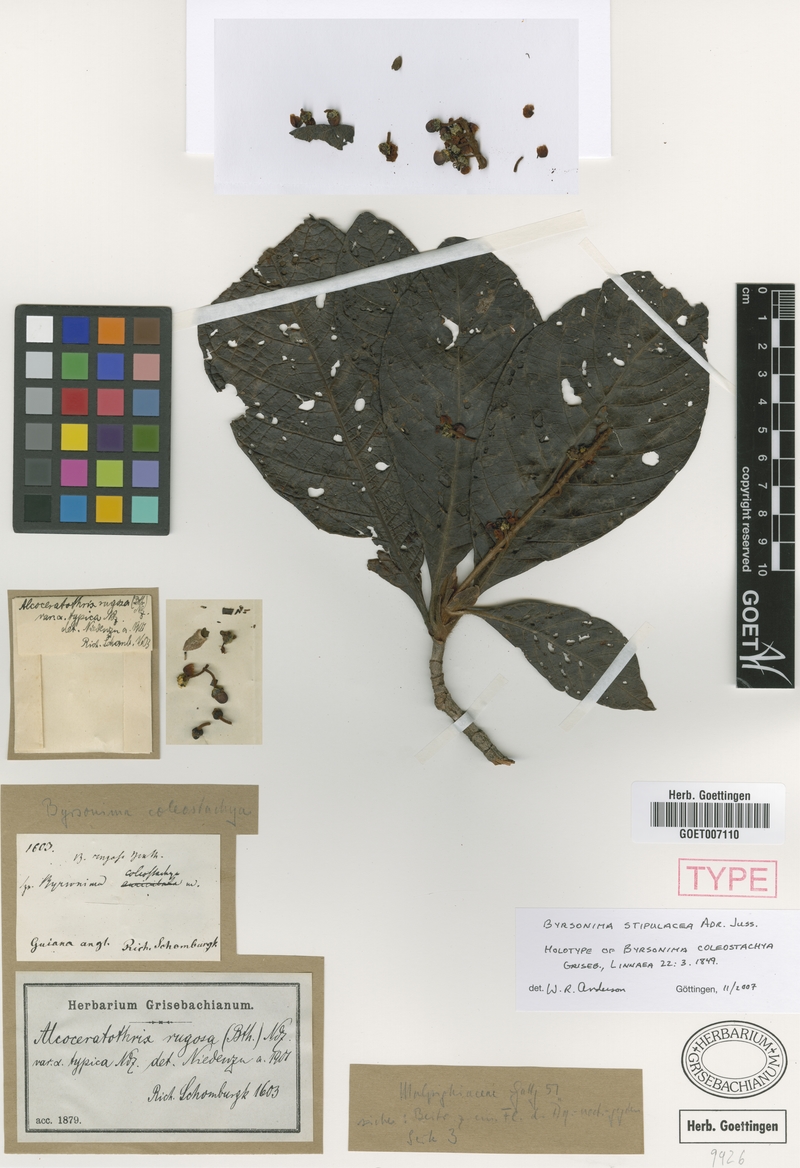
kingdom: Plantae
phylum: Tracheophyta
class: Magnoliopsida
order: Malpighiales
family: Malpighiaceae
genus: Byrsonima
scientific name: Byrsonima stipulacea
